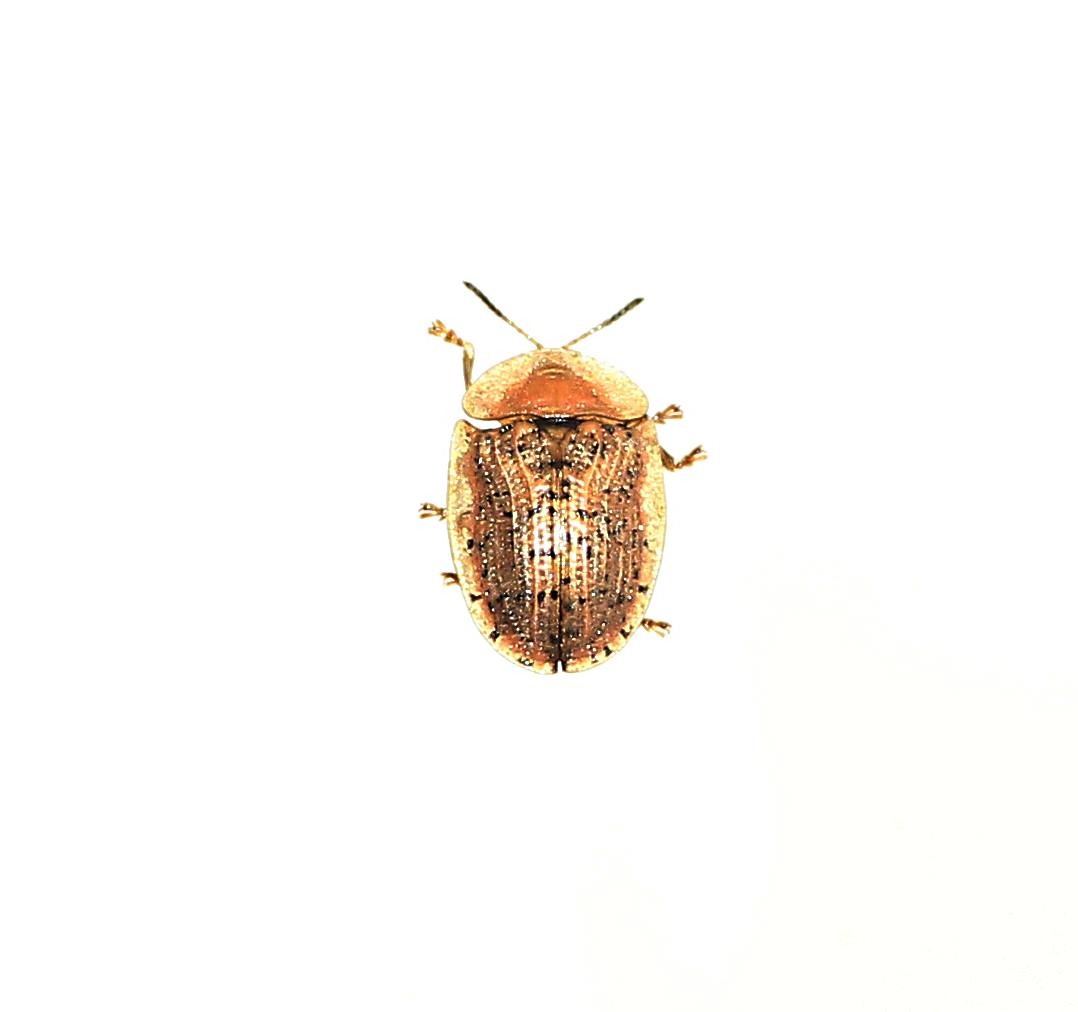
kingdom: Animalia
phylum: Arthropoda
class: Insecta
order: Coleoptera
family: Chrysomelidae
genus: Cassida
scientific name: Cassida nebulosa
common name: Plettet skjoldbille
